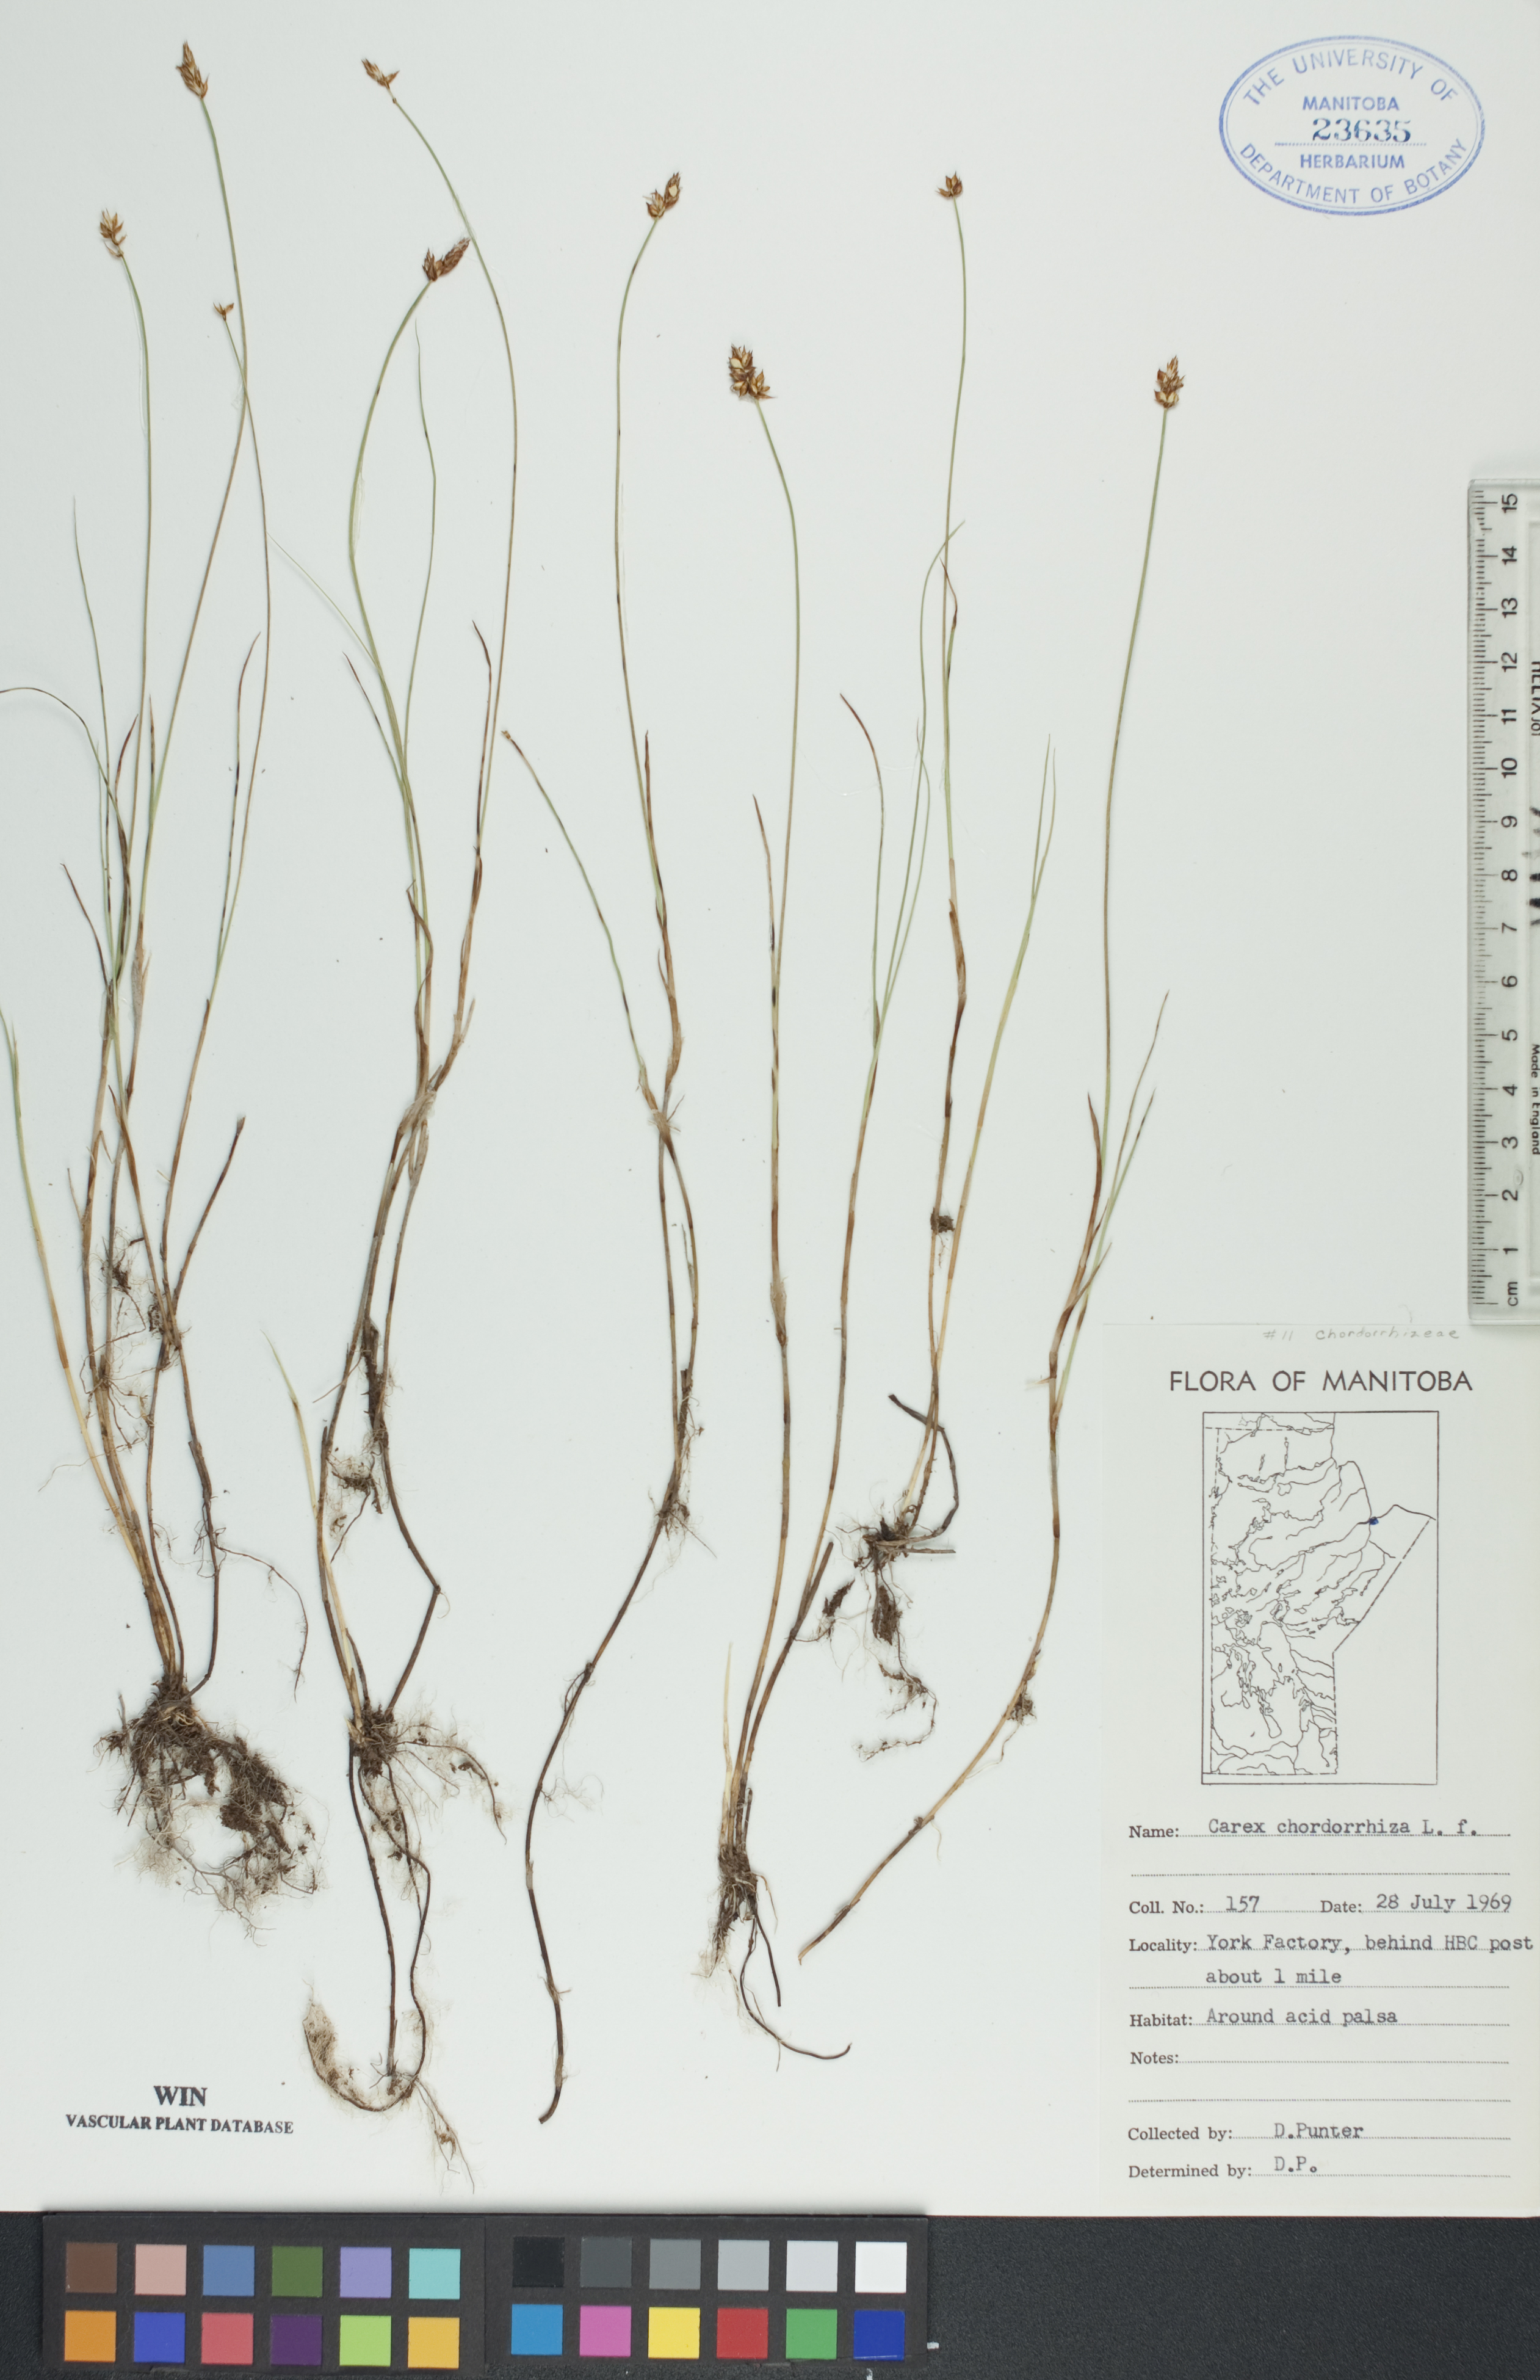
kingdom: Plantae
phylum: Tracheophyta
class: Liliopsida
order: Poales
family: Cyperaceae
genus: Carex
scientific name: Carex chordorrhiza
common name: String sedge
